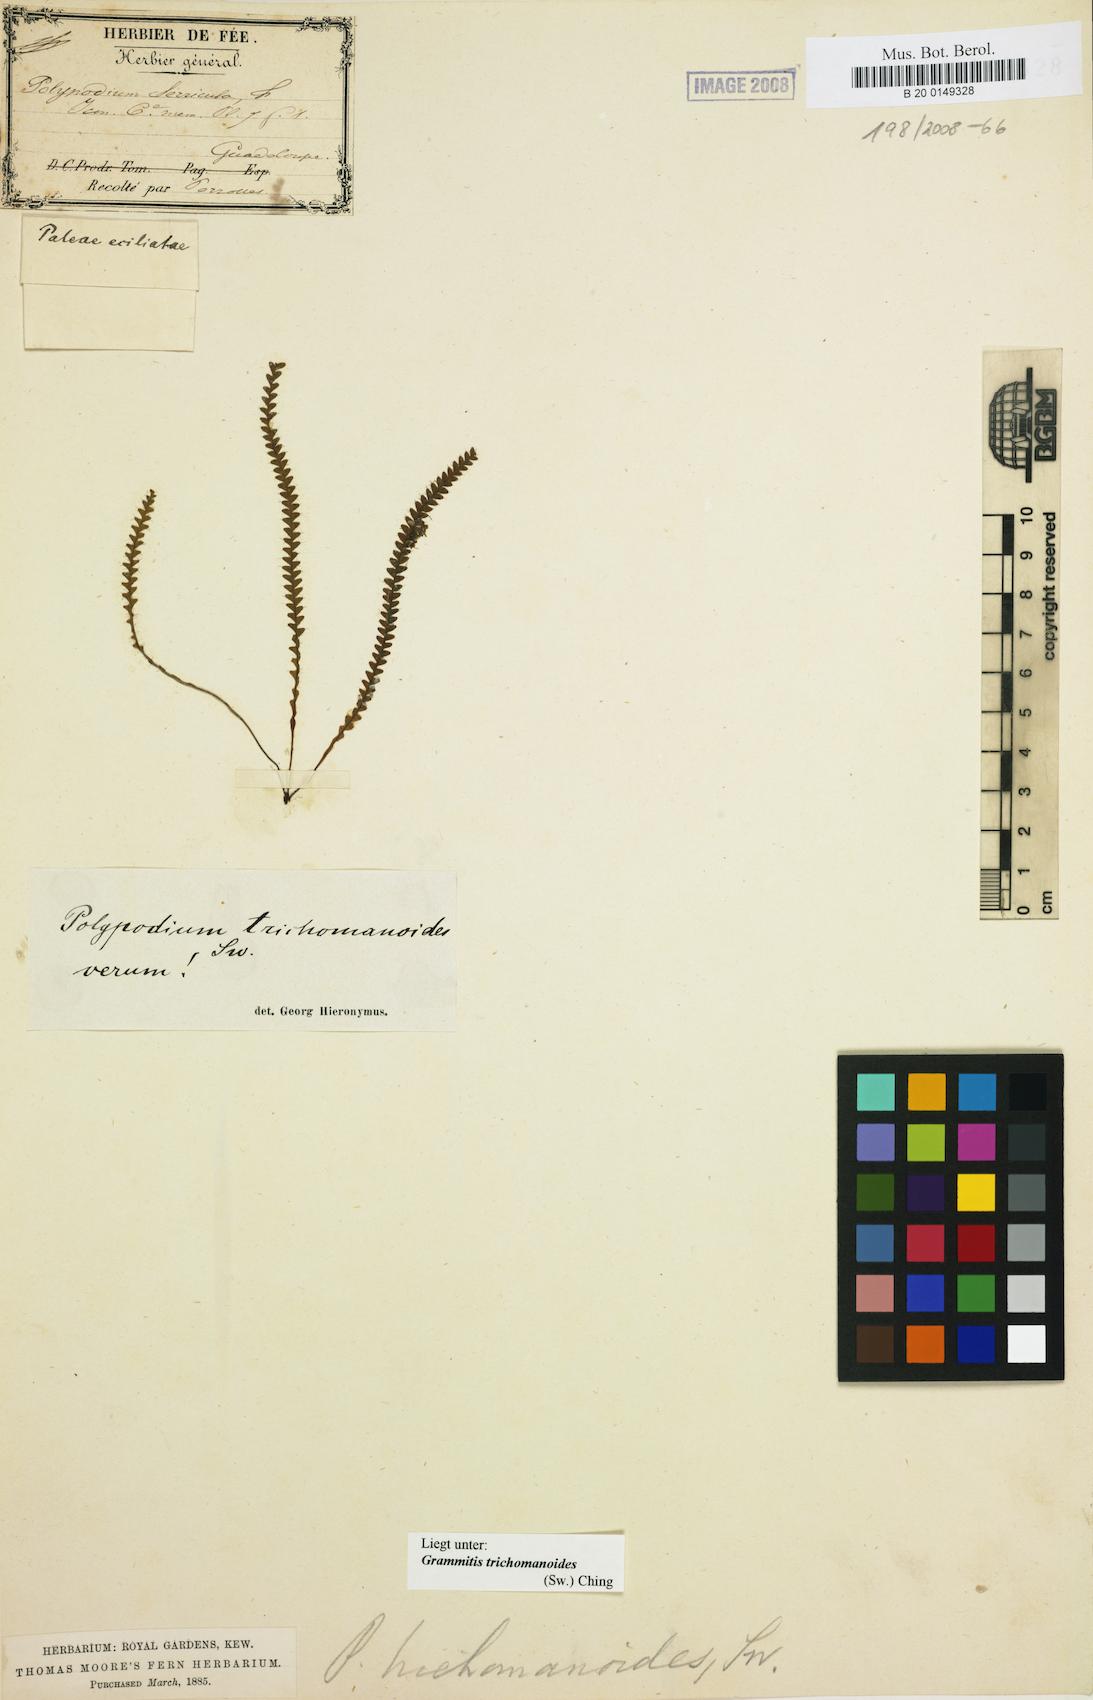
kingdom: Plantae
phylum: Tracheophyta
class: Polypodiopsida
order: Polypodiales
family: Polypodiaceae
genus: Moranopteris
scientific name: Moranopteris serricula
